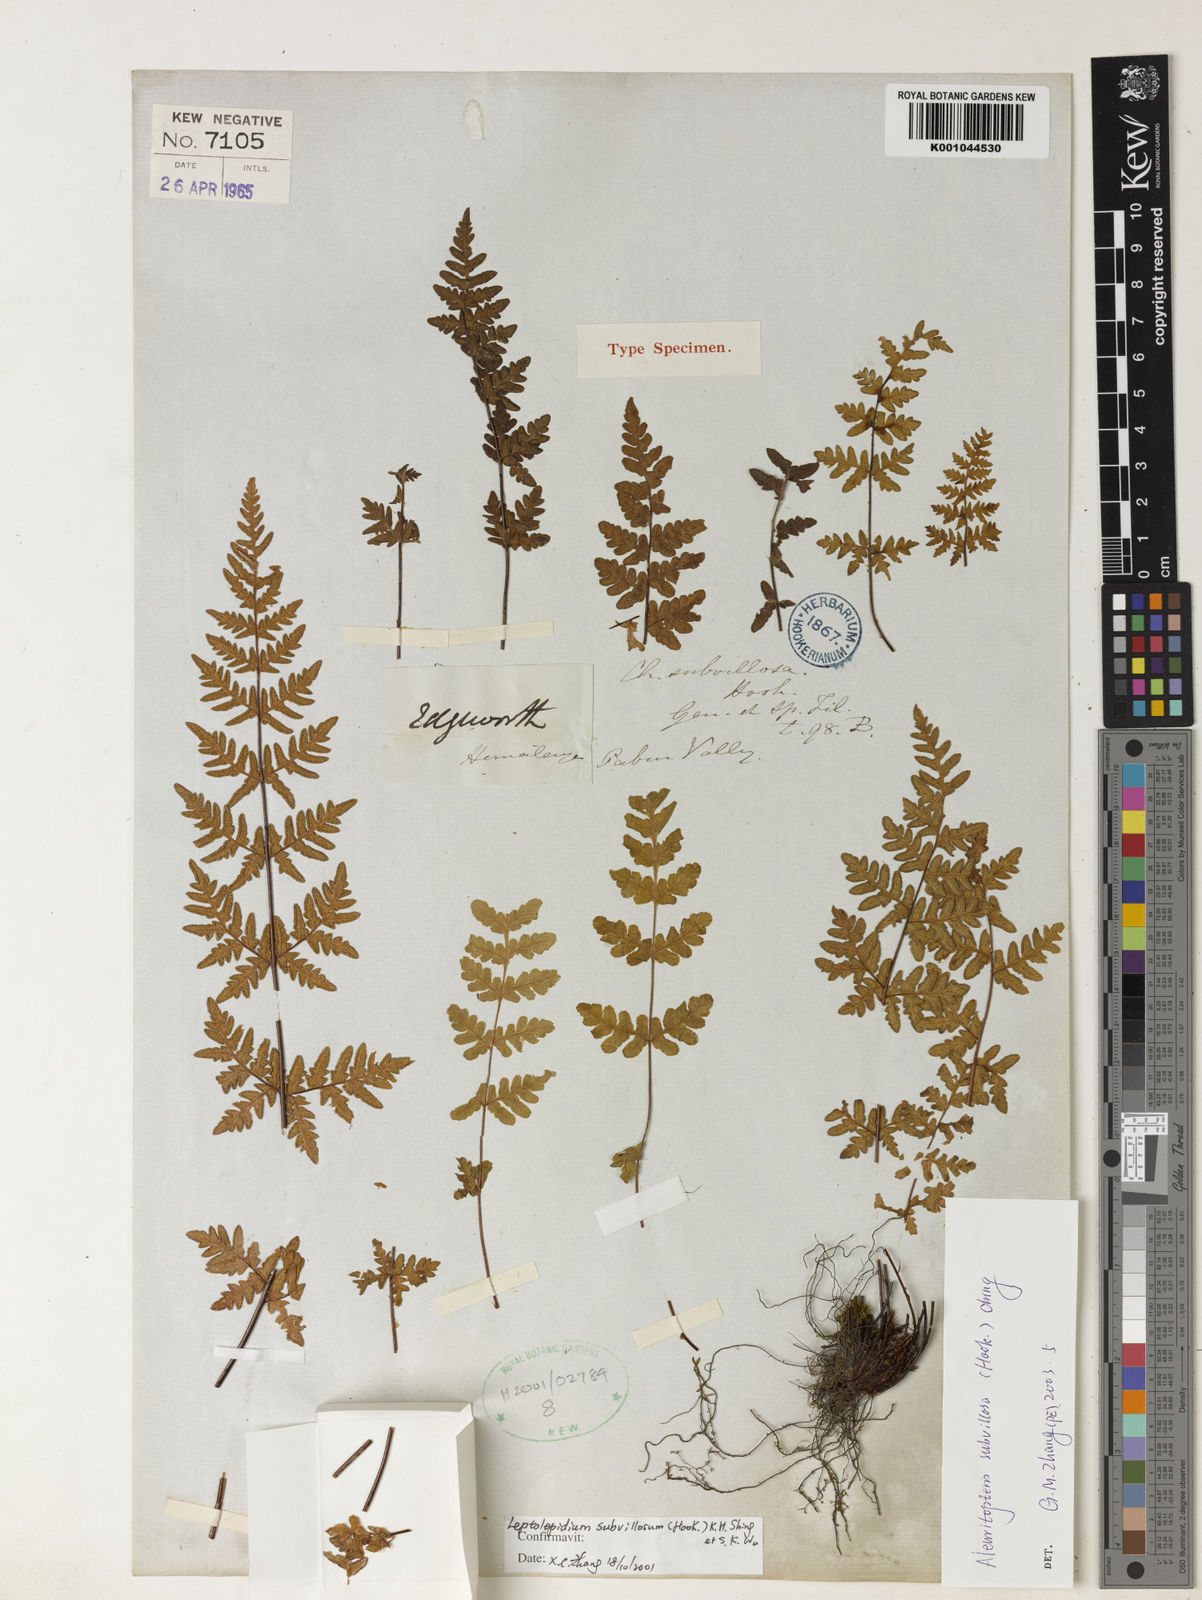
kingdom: Plantae
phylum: Tracheophyta
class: Polypodiopsida
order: Polypodiales
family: Pteridaceae
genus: Oeosporangium
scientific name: Oeosporangium subvillosum
